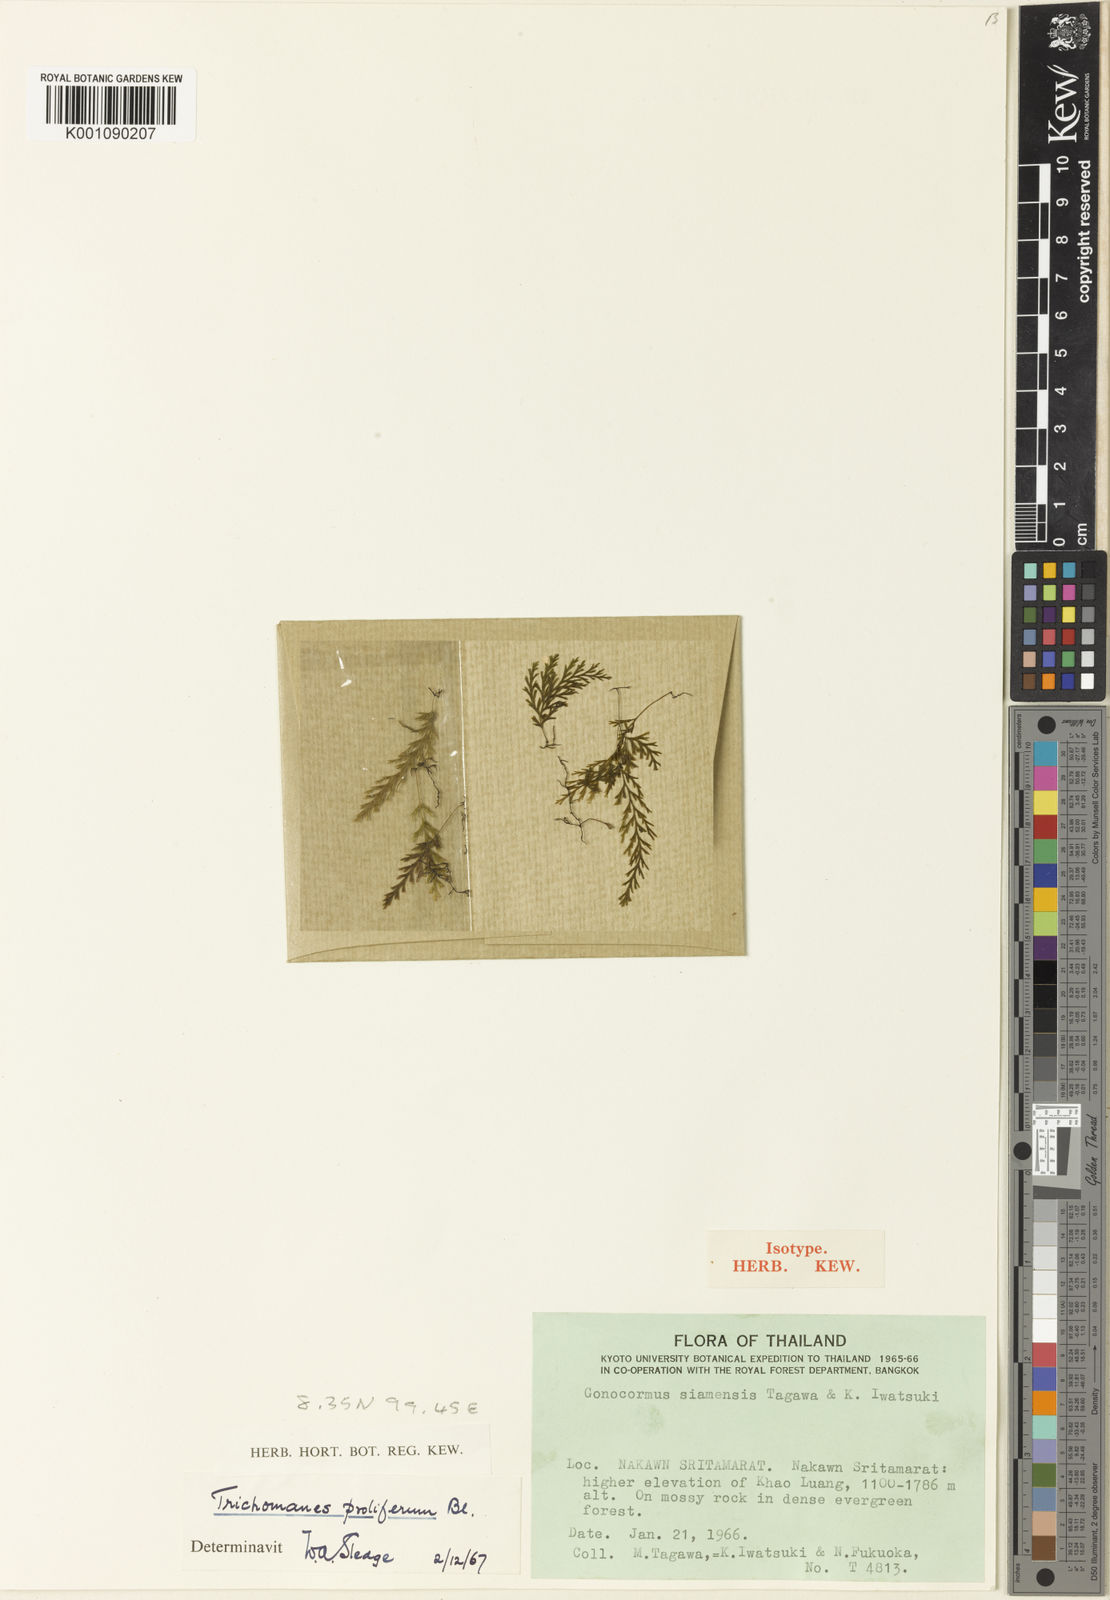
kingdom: Plantae
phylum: Tracheophyta
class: Polypodiopsida
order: Hymenophyllales
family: Hymenophyllaceae
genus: Abrodictyum
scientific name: Abrodictyum siamense
